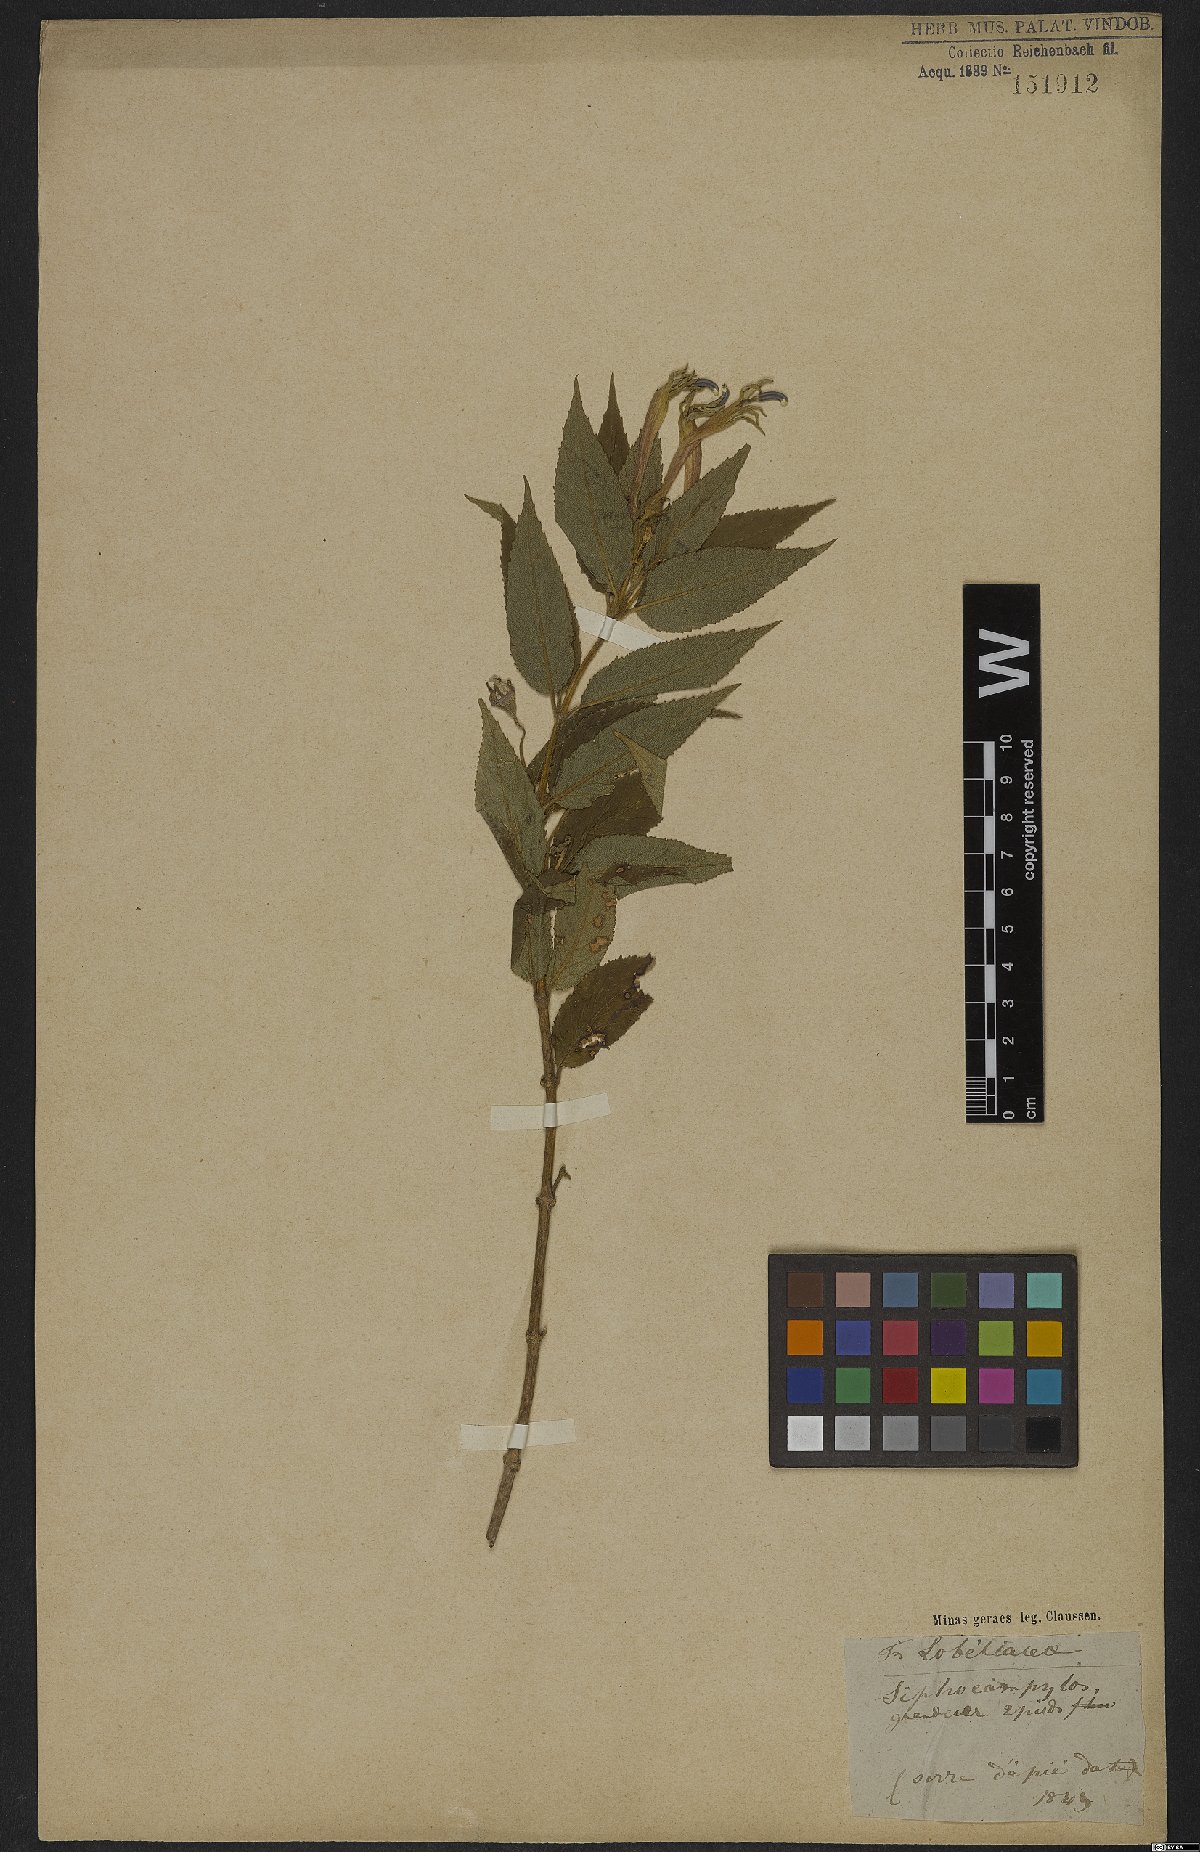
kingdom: Plantae
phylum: Tracheophyta
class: Magnoliopsida
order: Asterales
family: Campanulaceae
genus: Siphocampylus
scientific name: Siphocampylus westinianus
